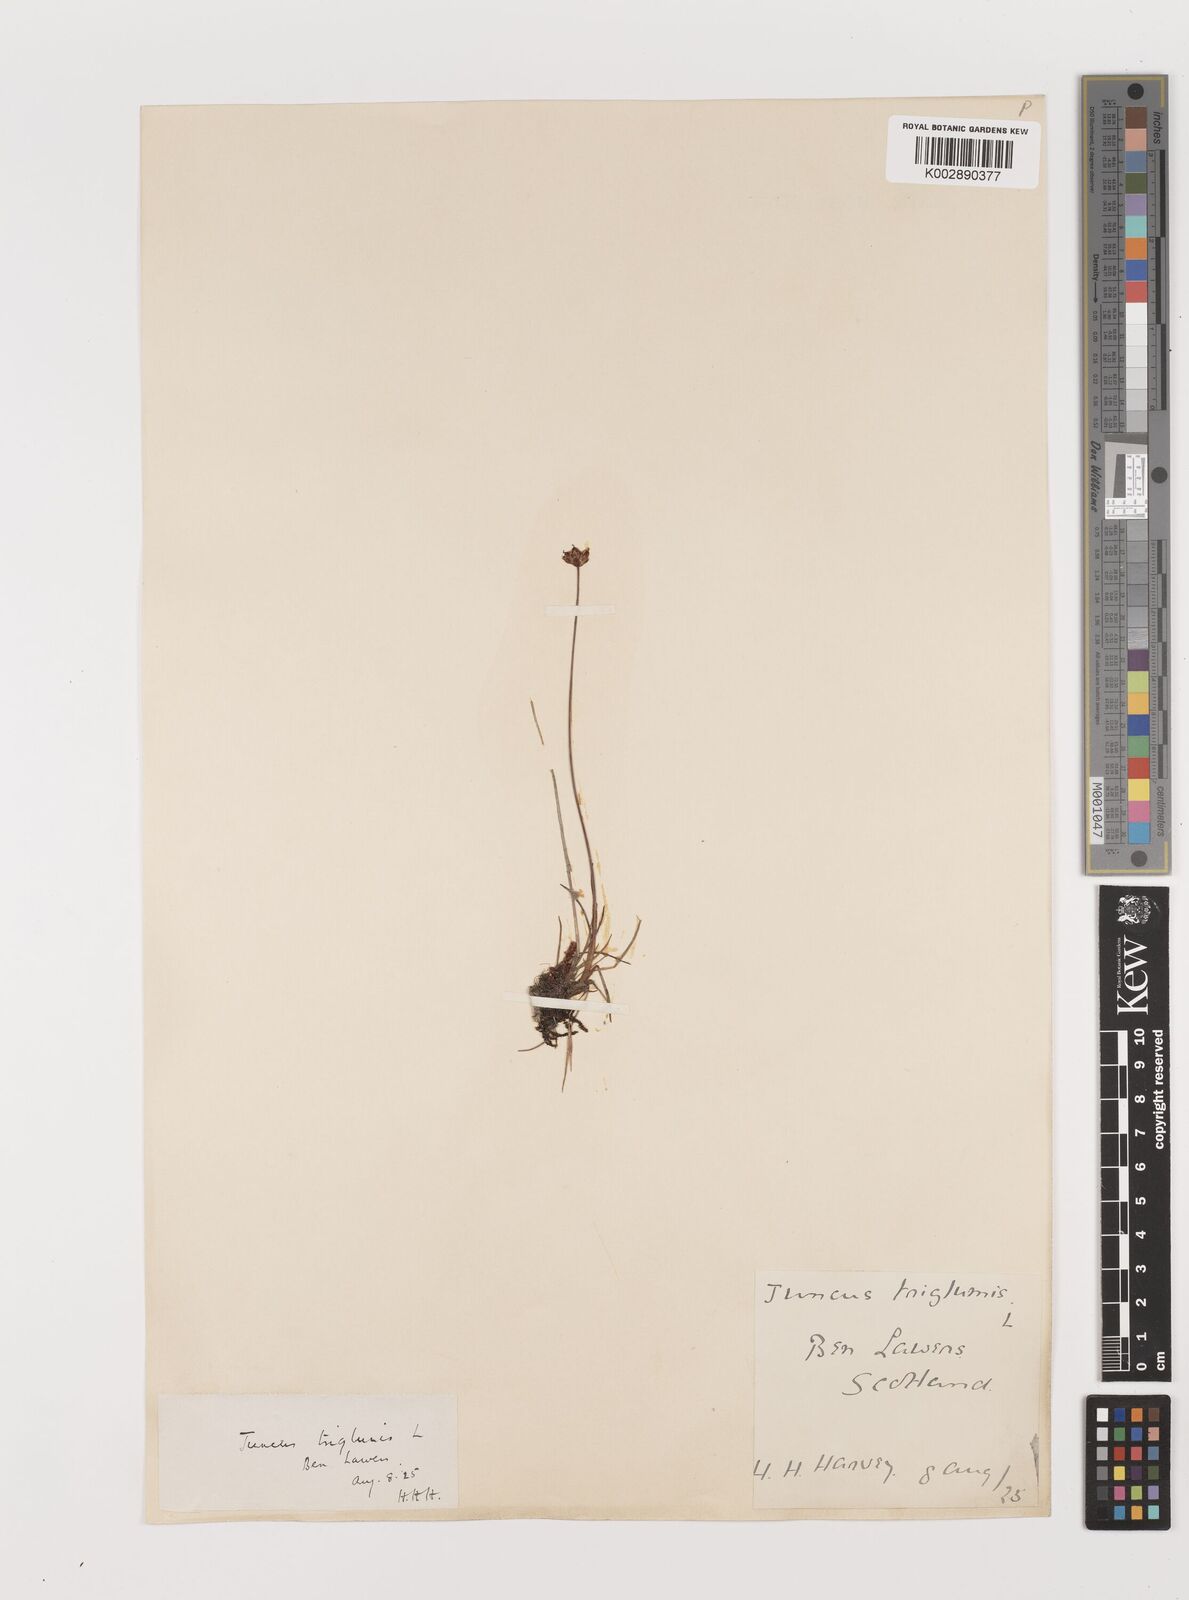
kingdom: Plantae
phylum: Tracheophyta
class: Liliopsida
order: Poales
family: Juncaceae
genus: Juncus
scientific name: Juncus triglumis
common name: Three-flowered rush
